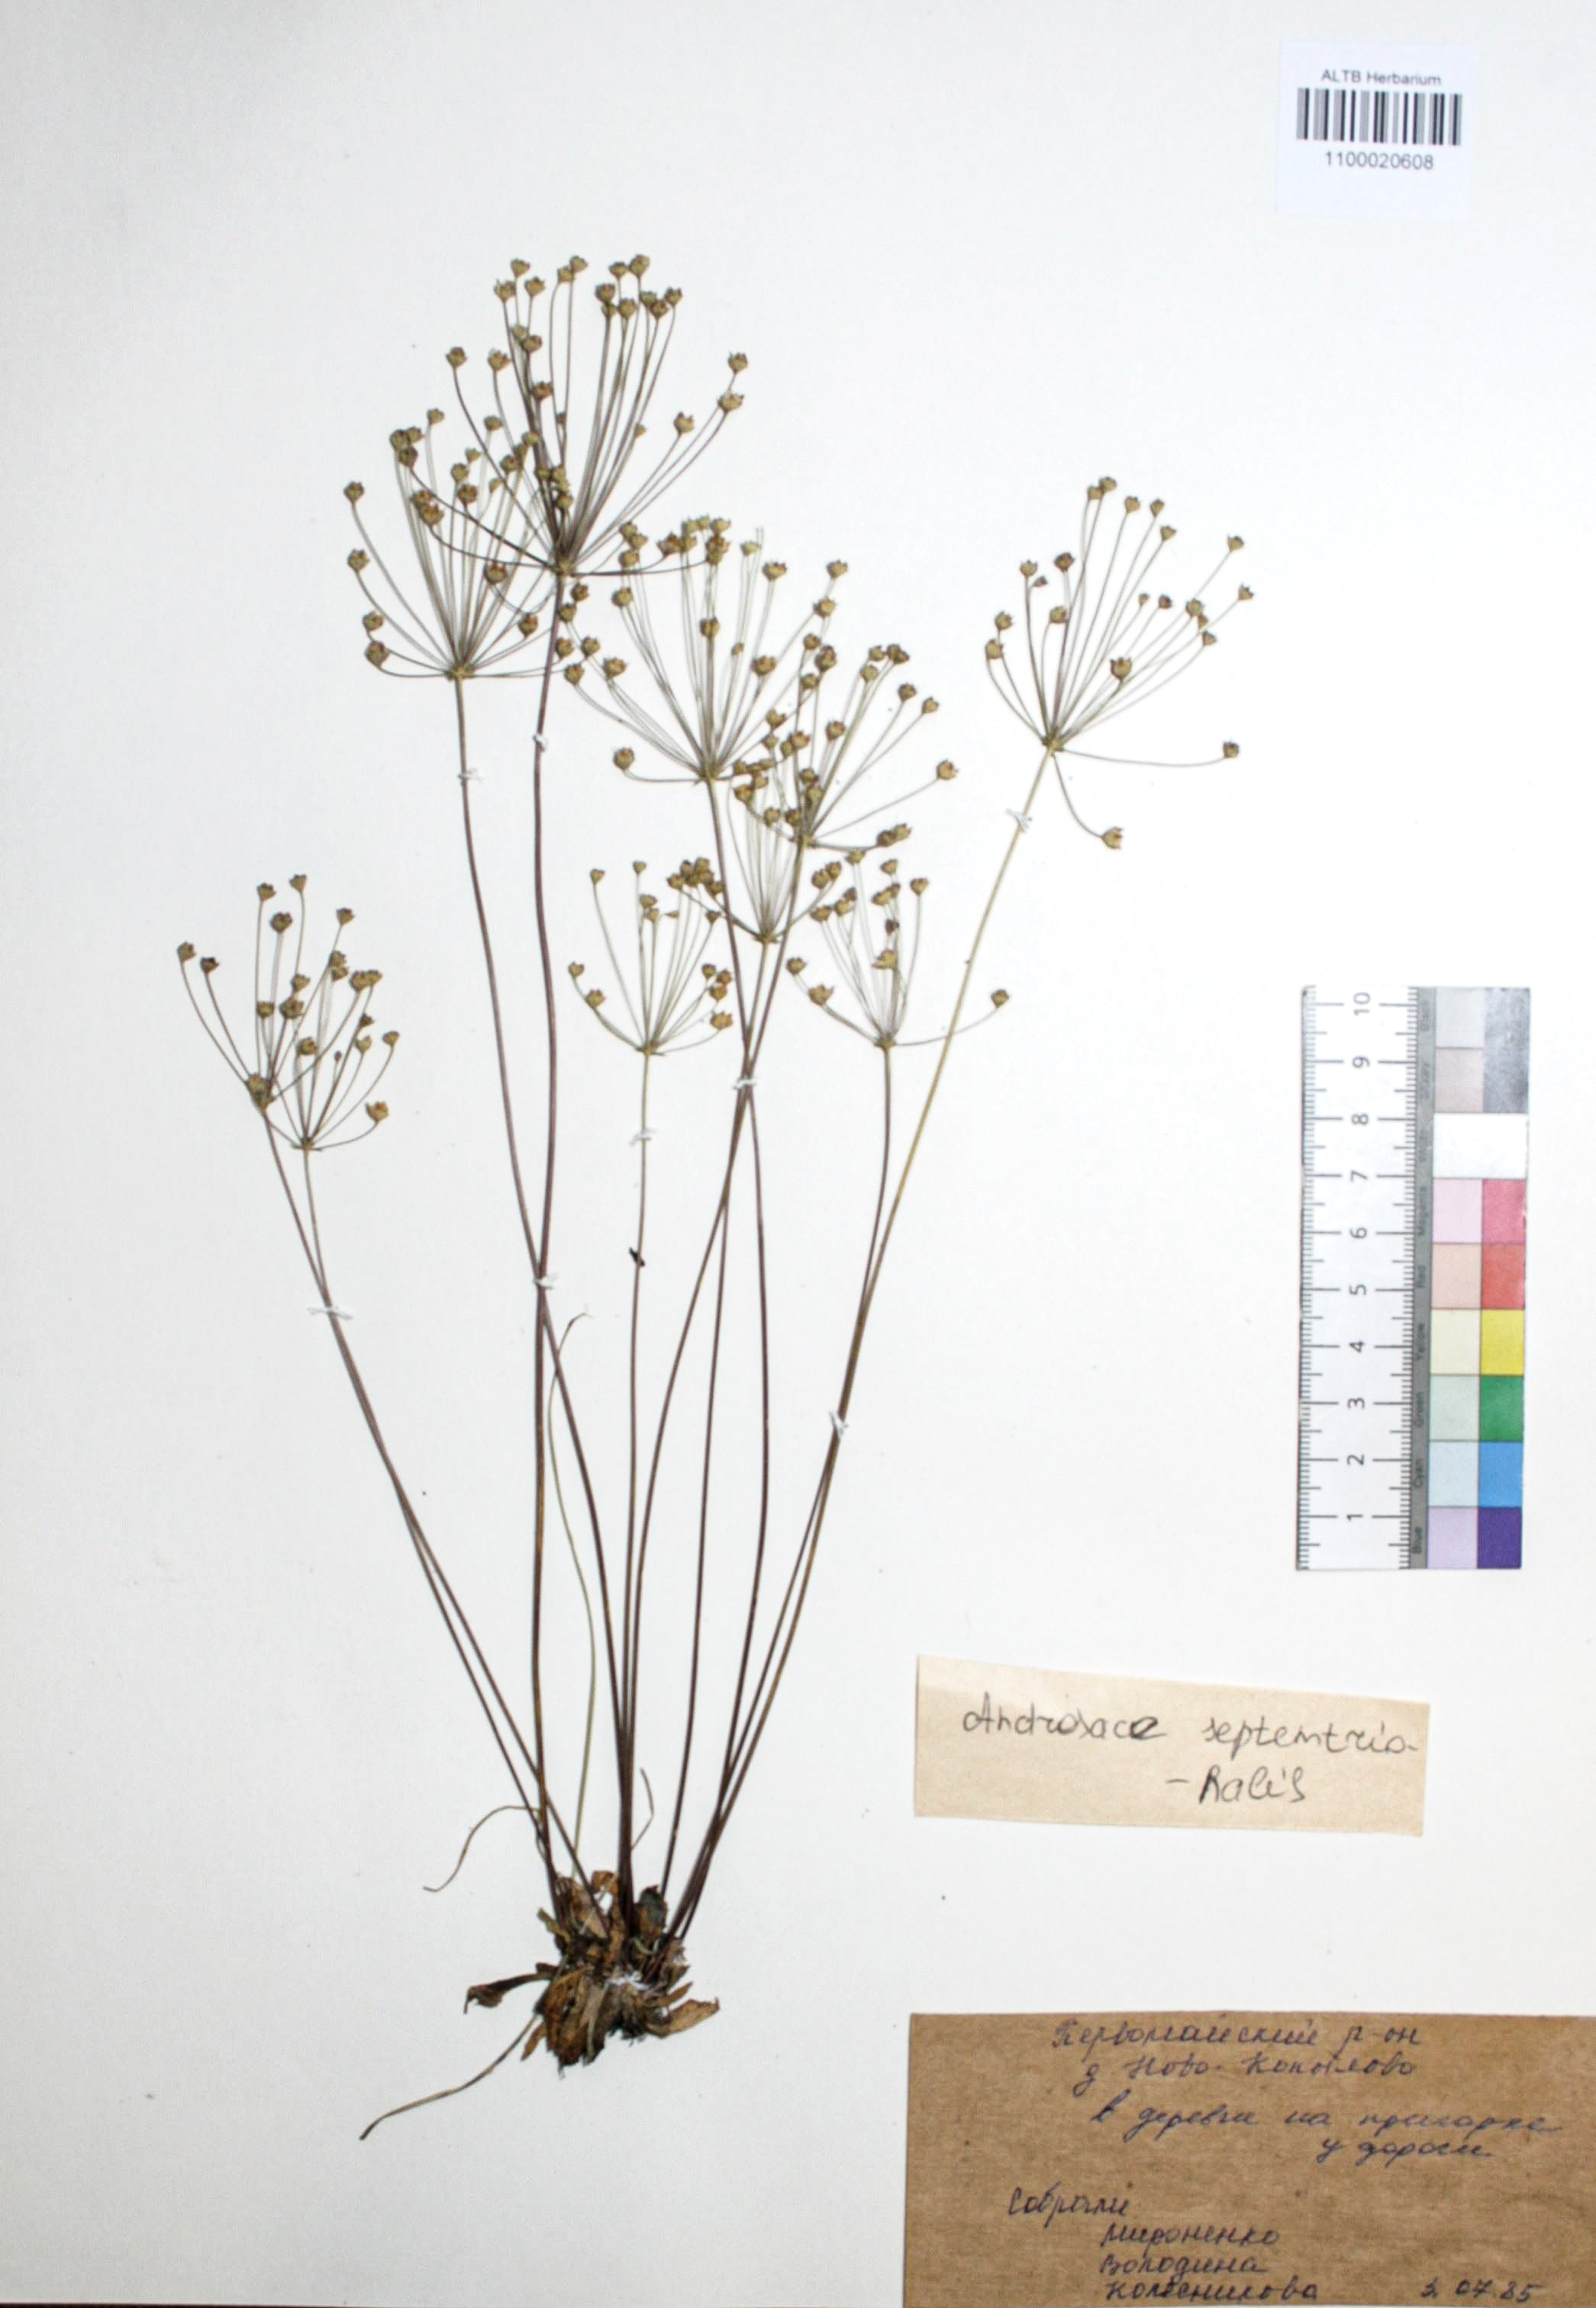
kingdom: Plantae
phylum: Tracheophyta
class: Magnoliopsida
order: Ericales
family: Primulaceae
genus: Androsace
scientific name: Androsace septentrionalis
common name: Hairy northern fairy-candelabra
